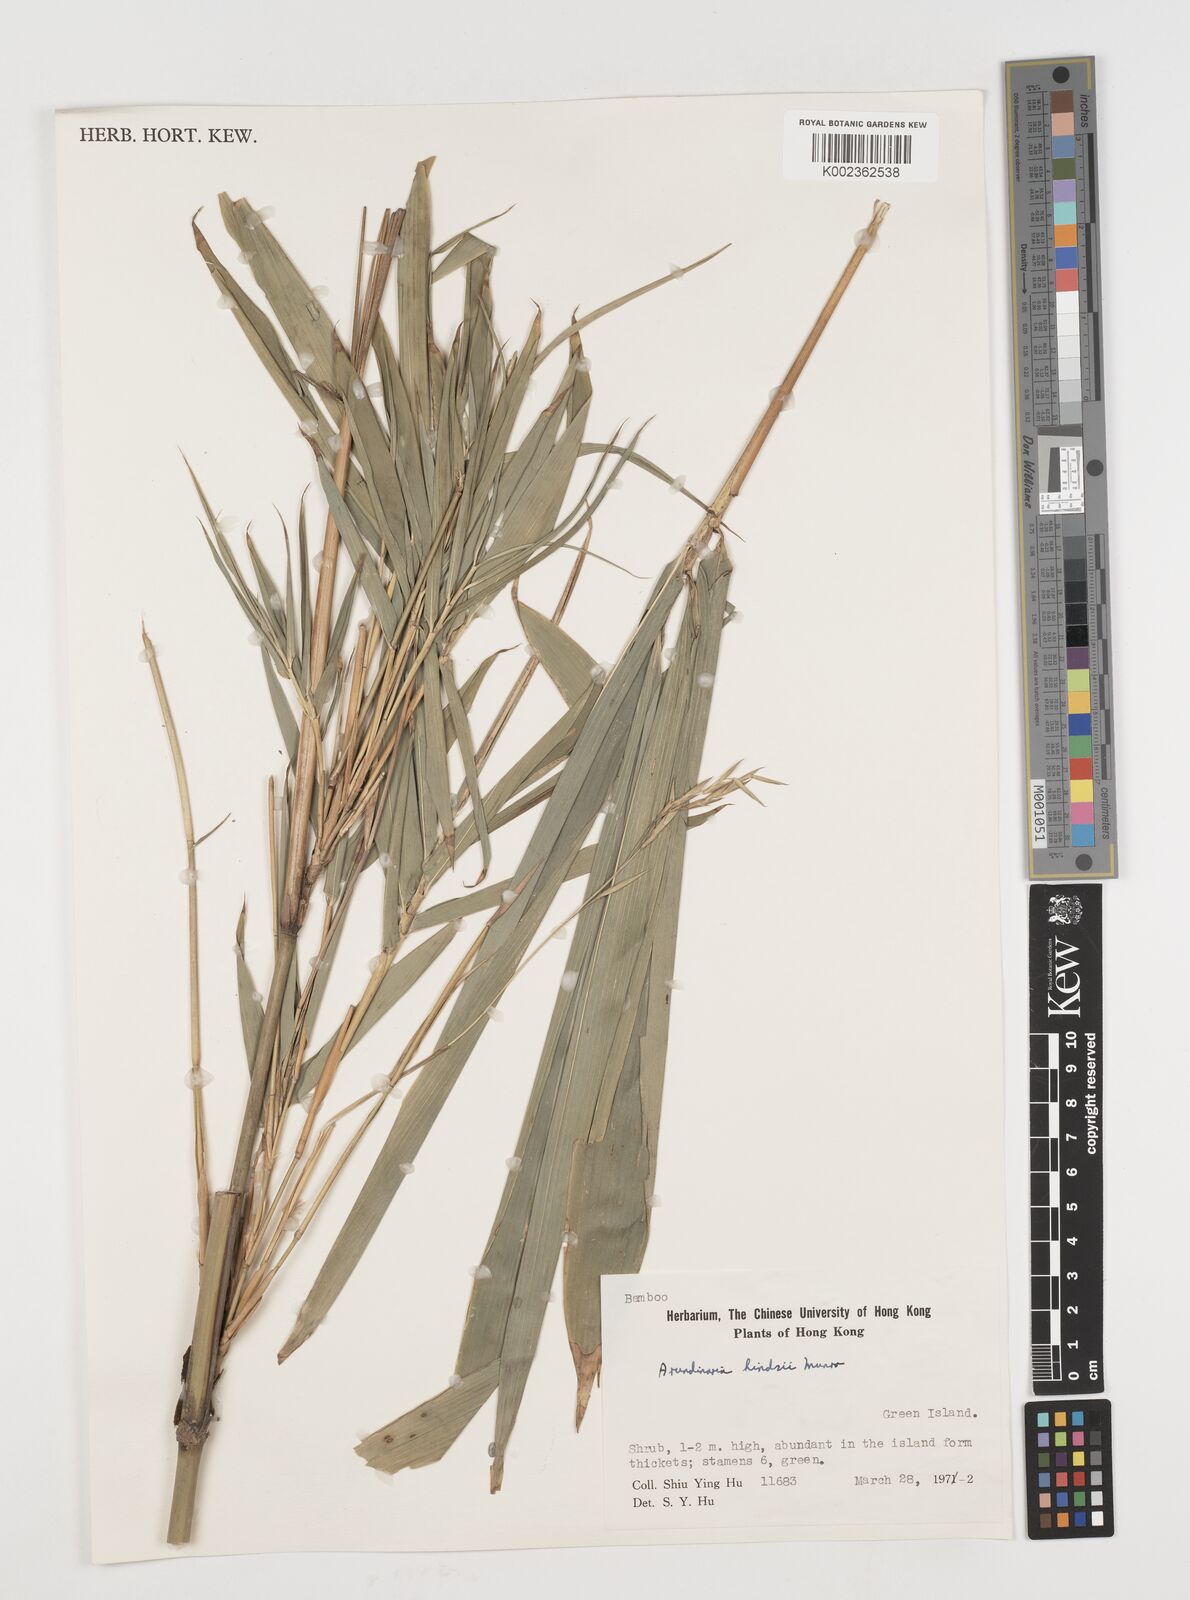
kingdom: Plantae
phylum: Tracheophyta
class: Liliopsida
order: Poales
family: Poaceae
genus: Pseudosasa
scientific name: Pseudosasa hindsii
